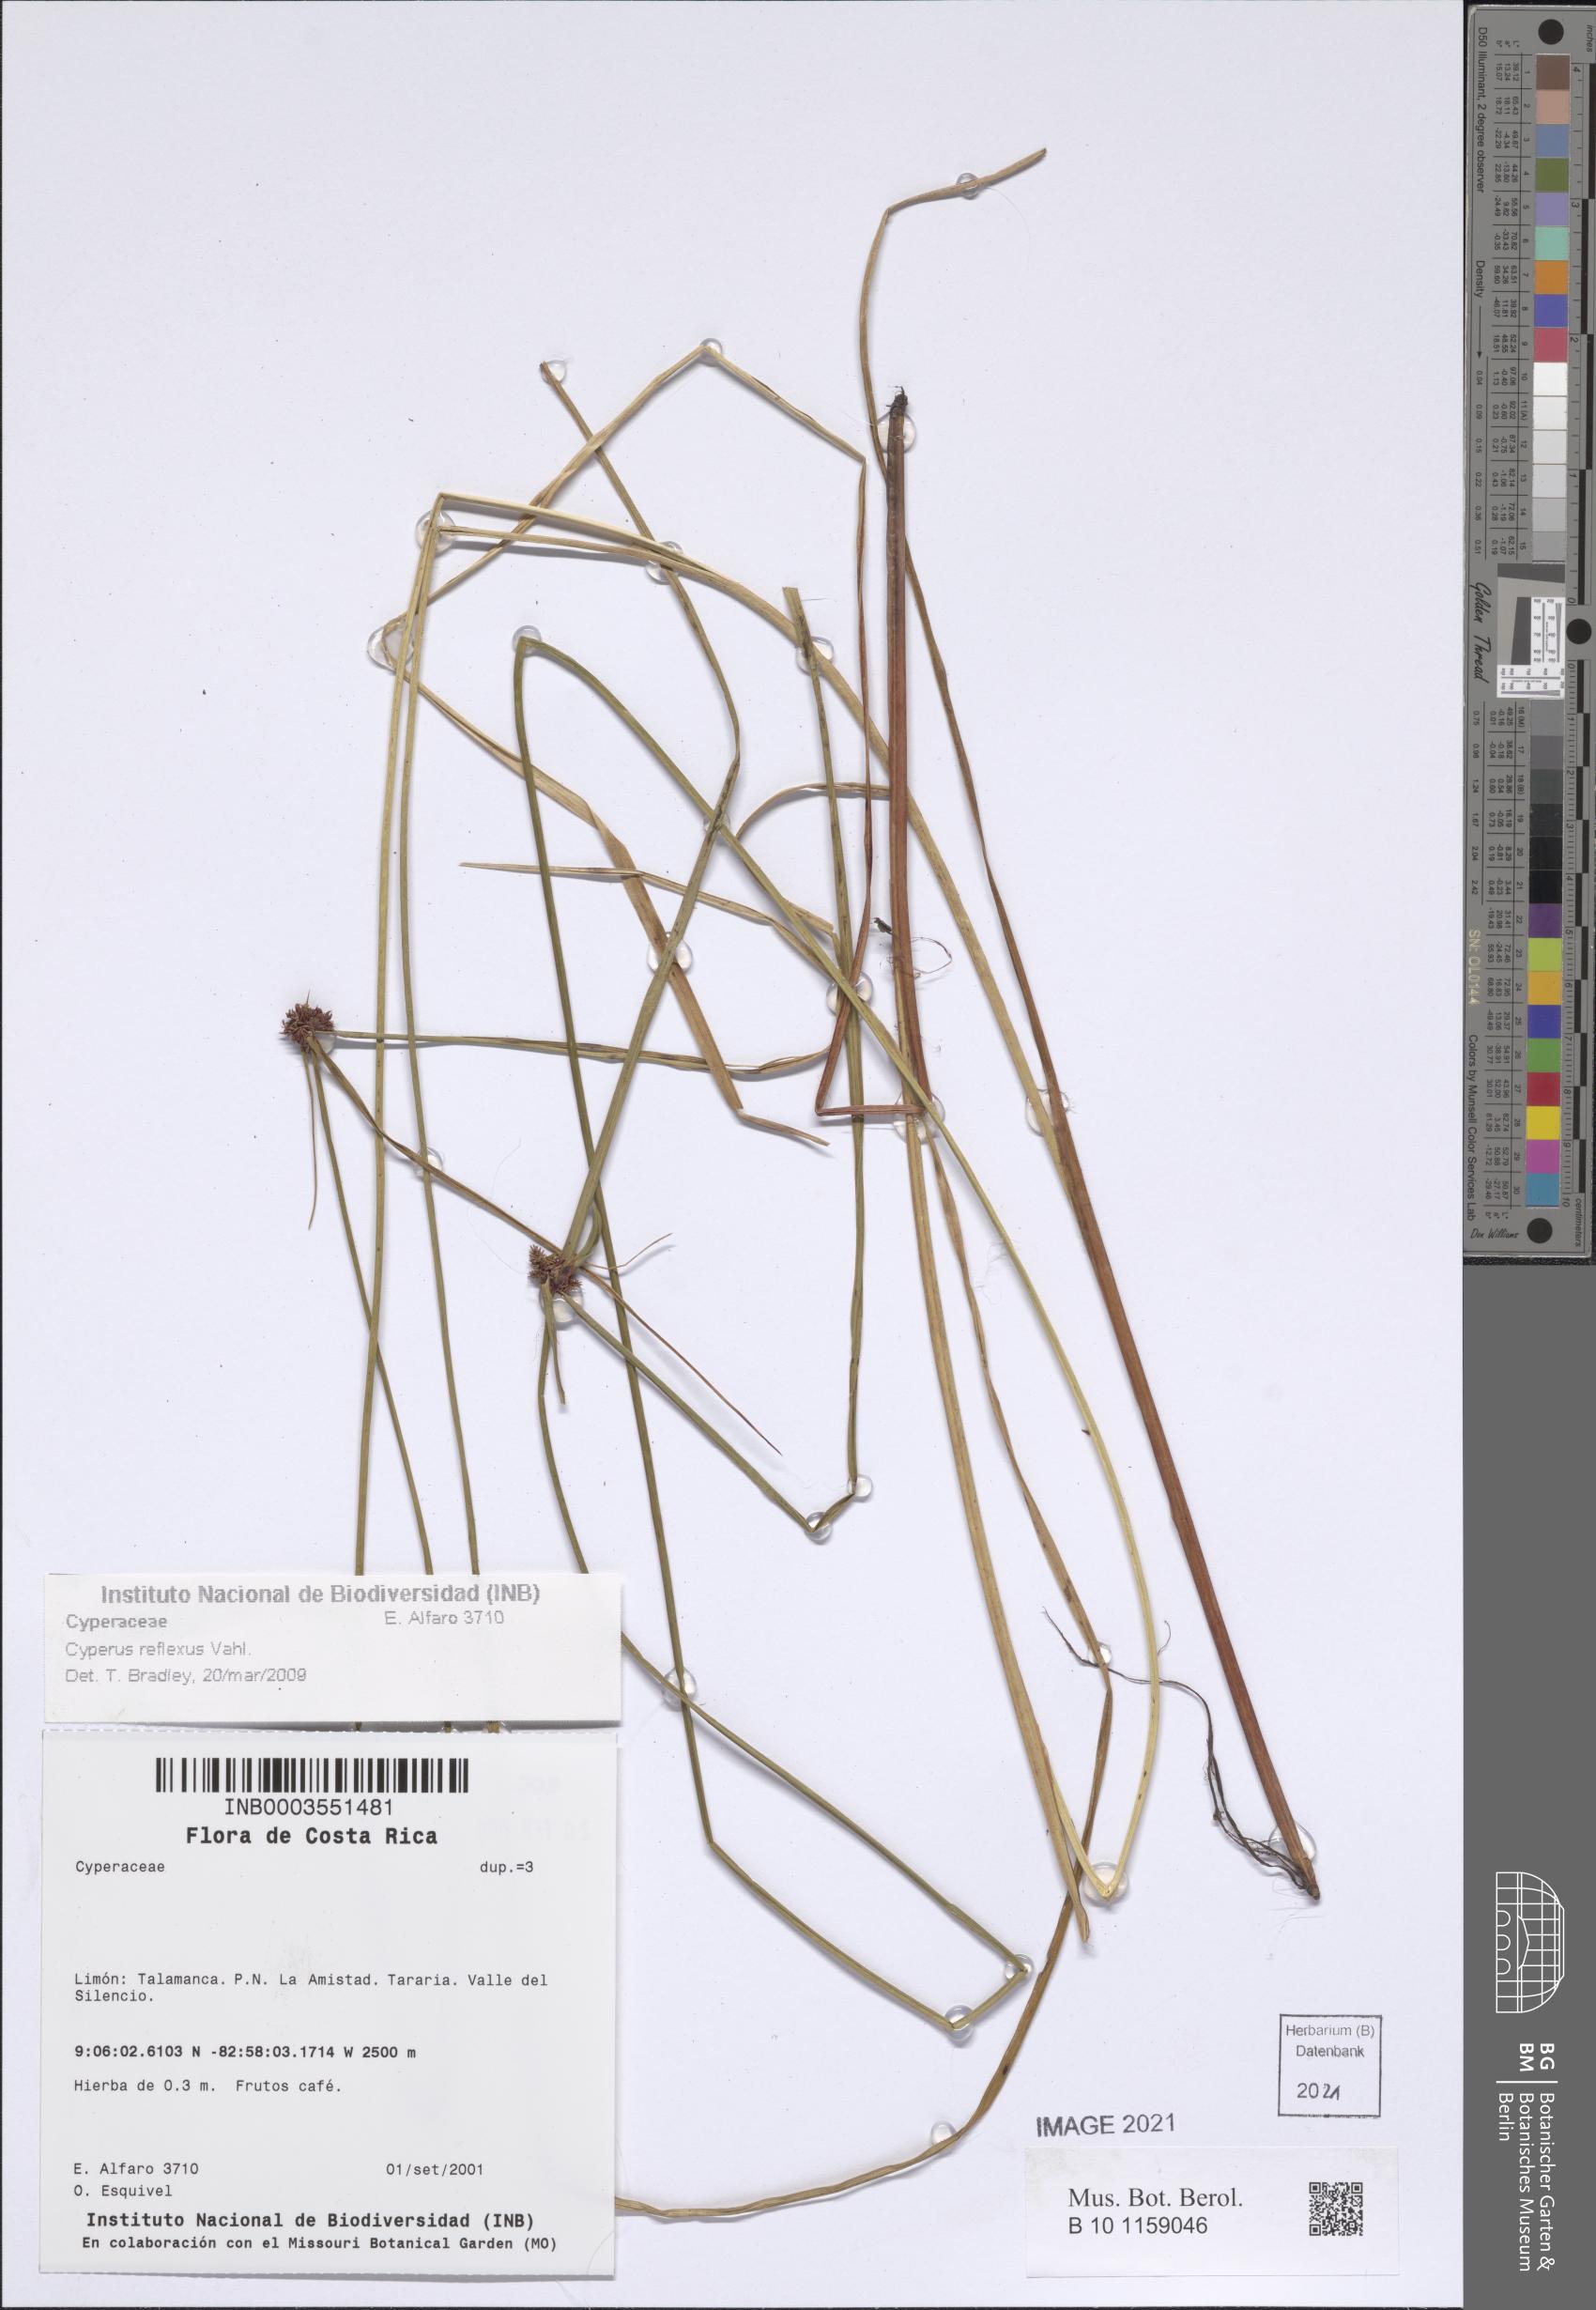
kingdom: Plantae
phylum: Tracheophyta
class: Liliopsida
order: Poales
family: Cyperaceae
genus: Cyperus
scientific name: Cyperus reflexus
